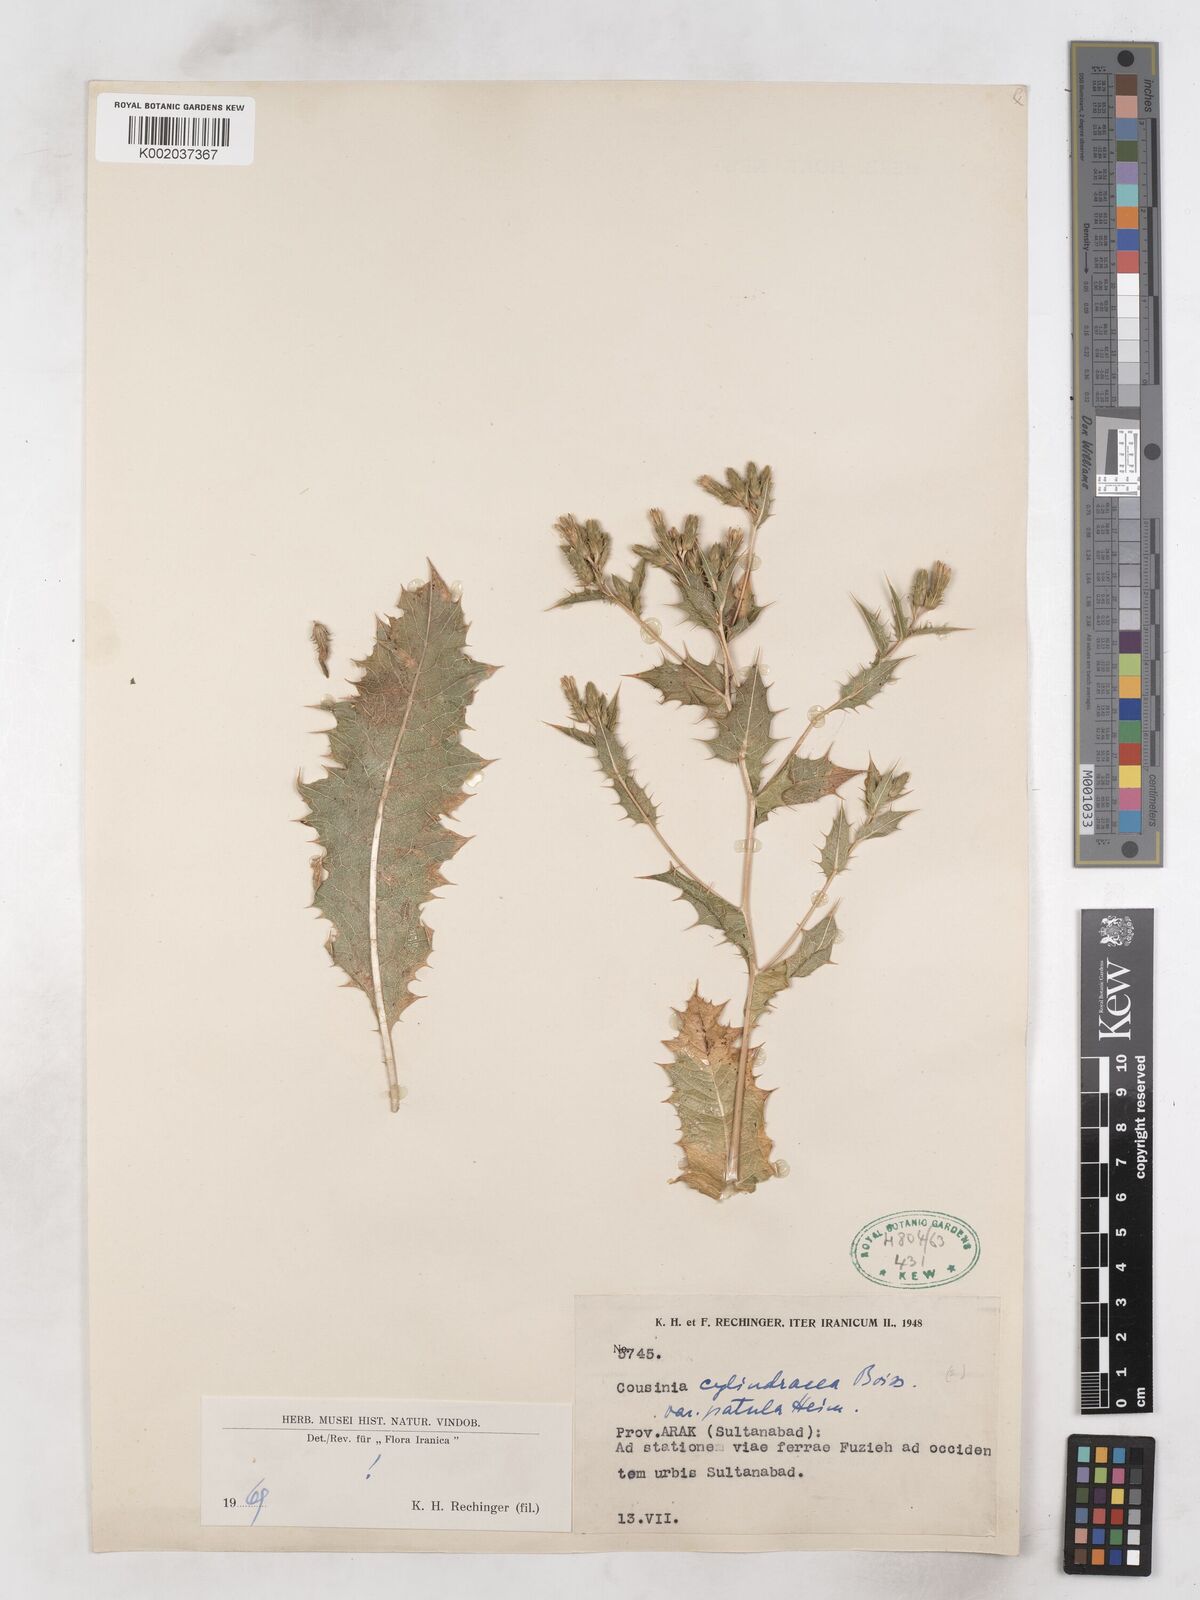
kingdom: Plantae
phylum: Tracheophyta
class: Magnoliopsida
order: Asterales
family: Asteraceae
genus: Cousinia
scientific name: Cousinia cylindracea
